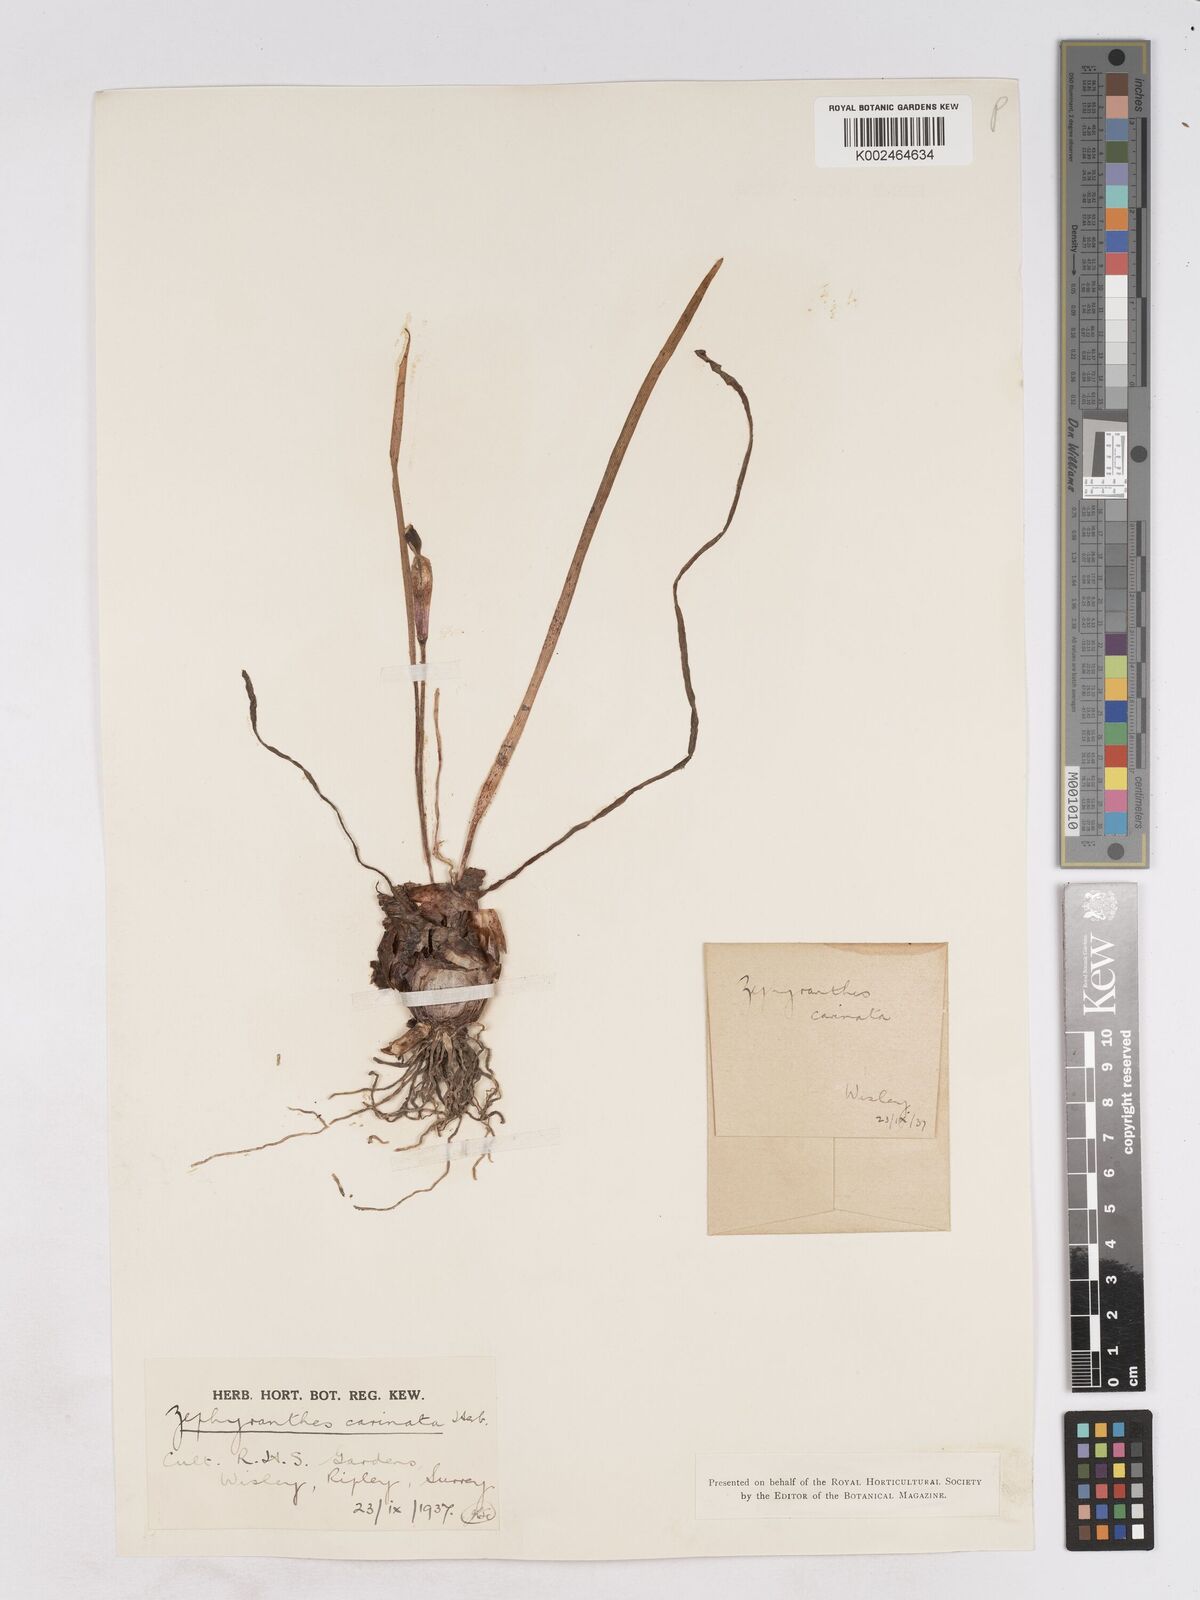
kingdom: Plantae
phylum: Tracheophyta
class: Liliopsida
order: Asparagales
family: Amaryllidaceae
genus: Zephyranthes
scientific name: Zephyranthes minuta
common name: Pink rain lily
